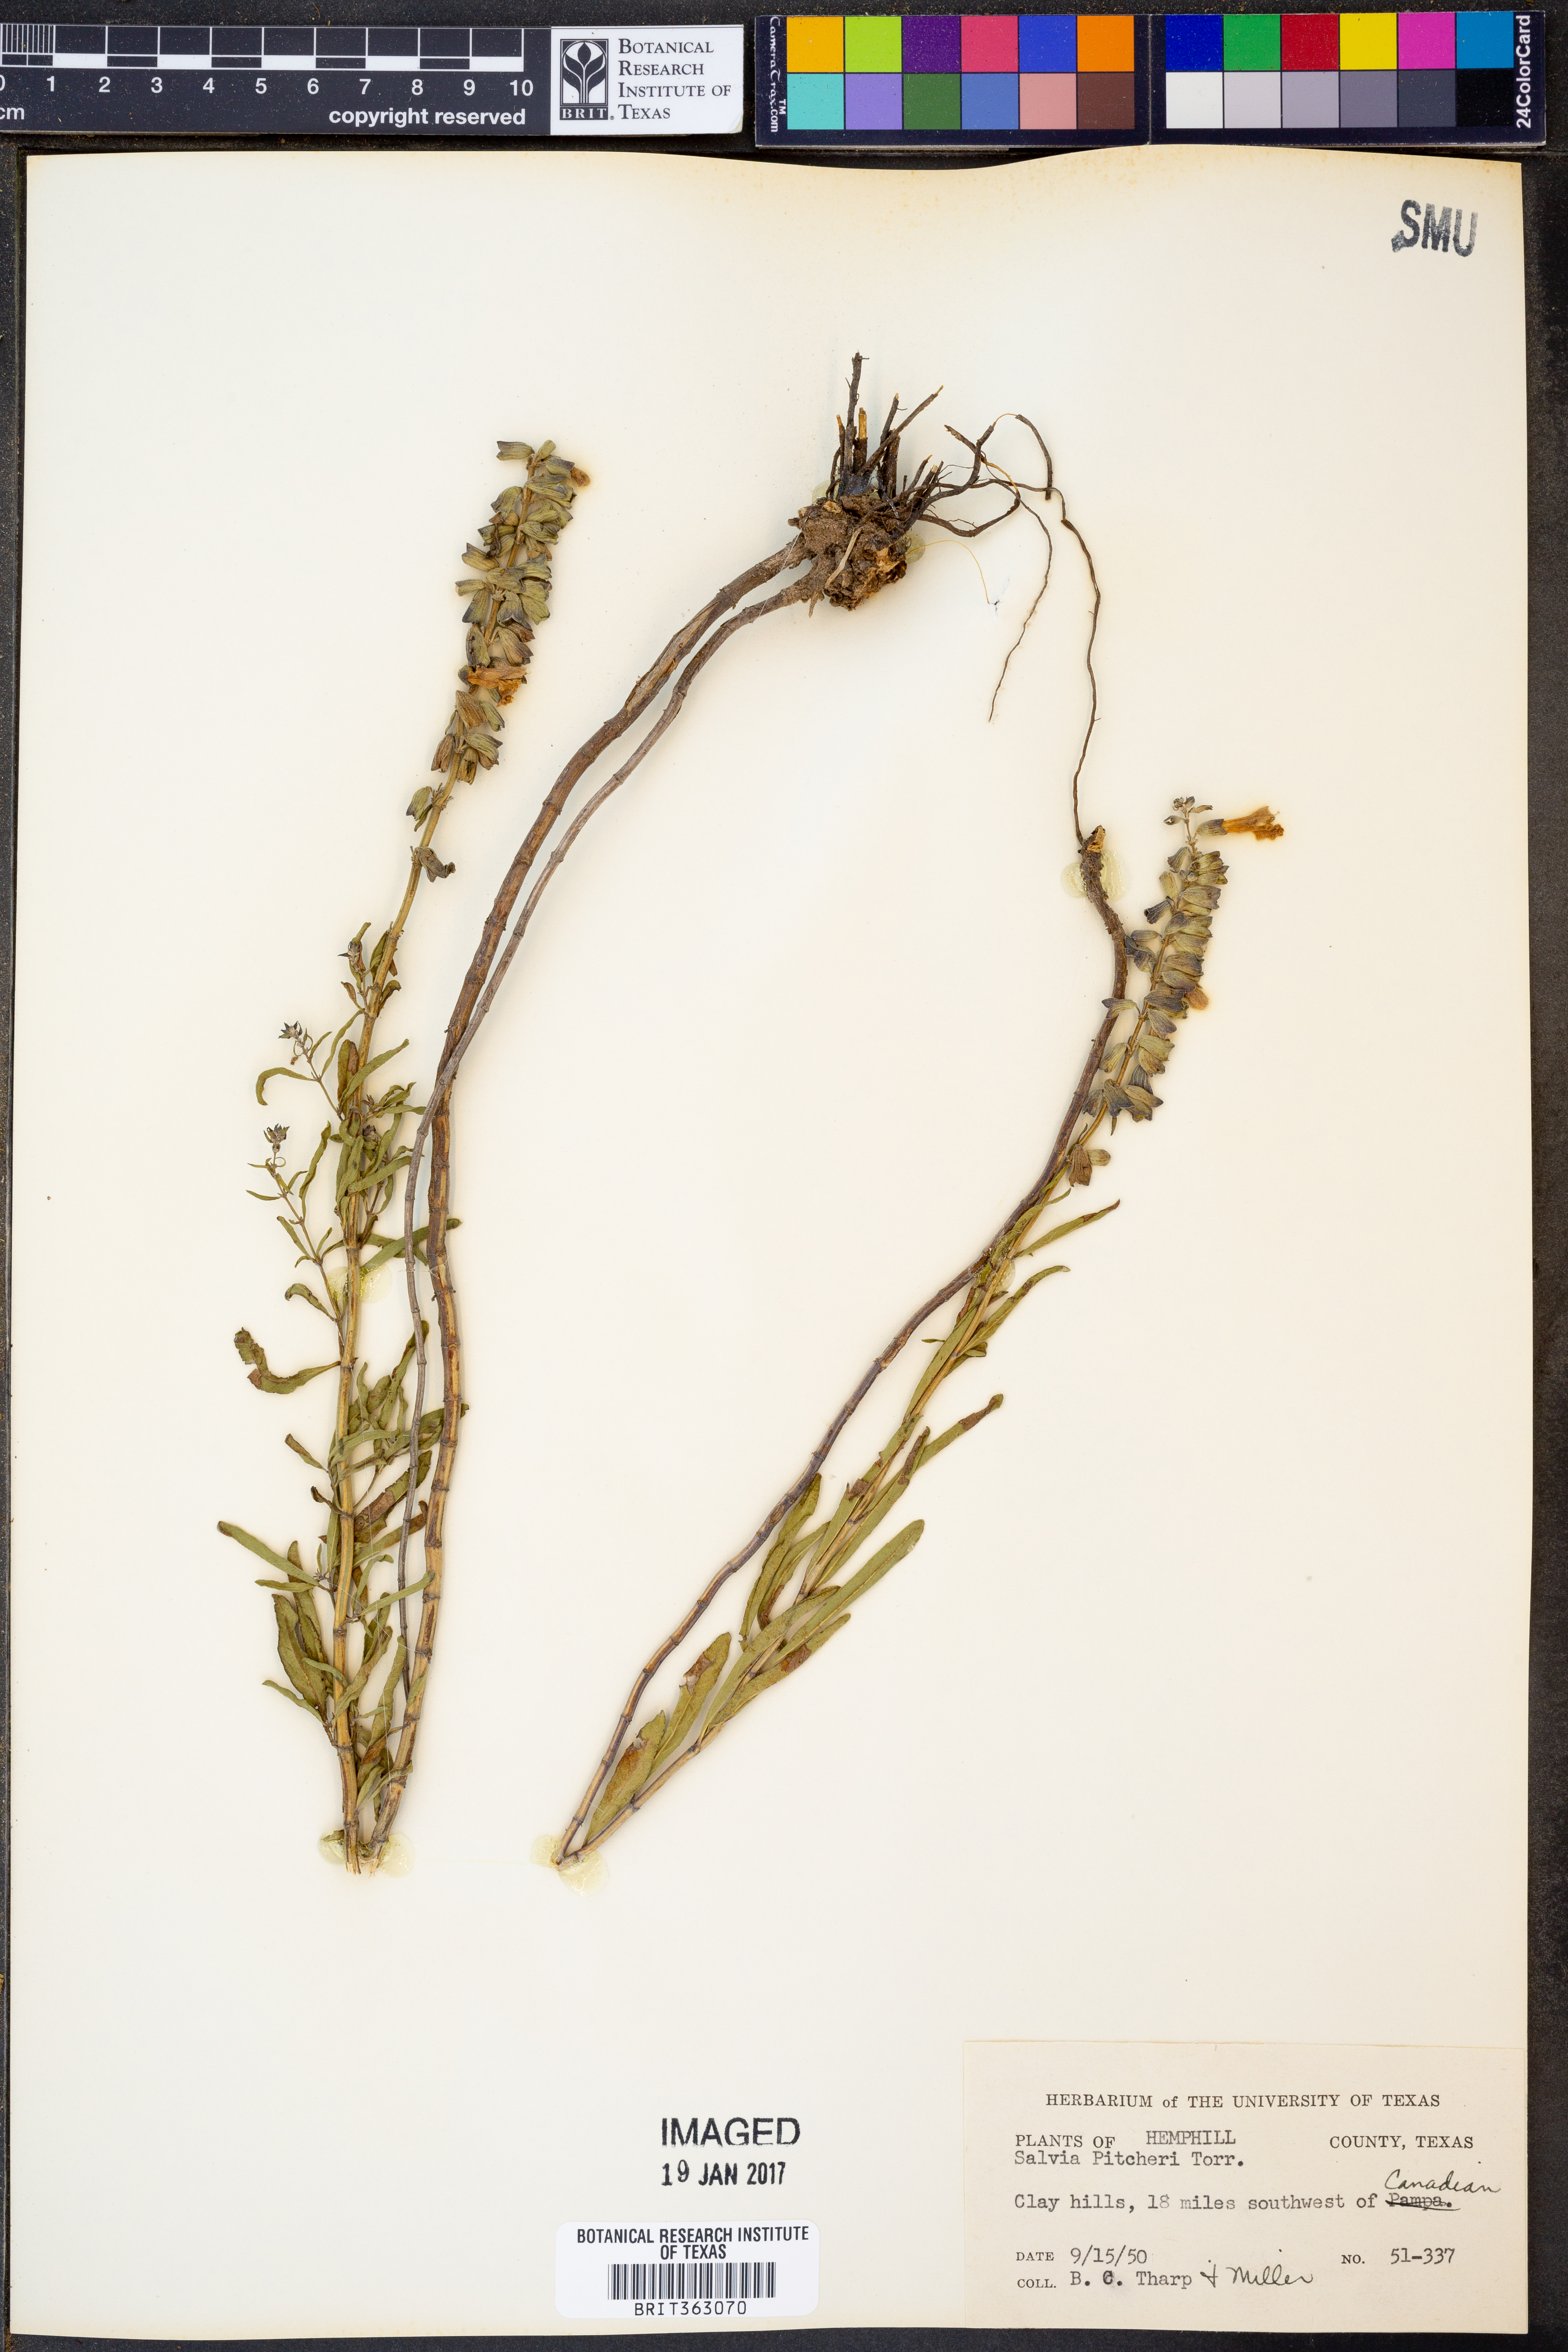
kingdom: Plantae
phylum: Tracheophyta
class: Magnoliopsida
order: Lamiales
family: Lamiaceae
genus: Salvia
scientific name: Salvia azurea
